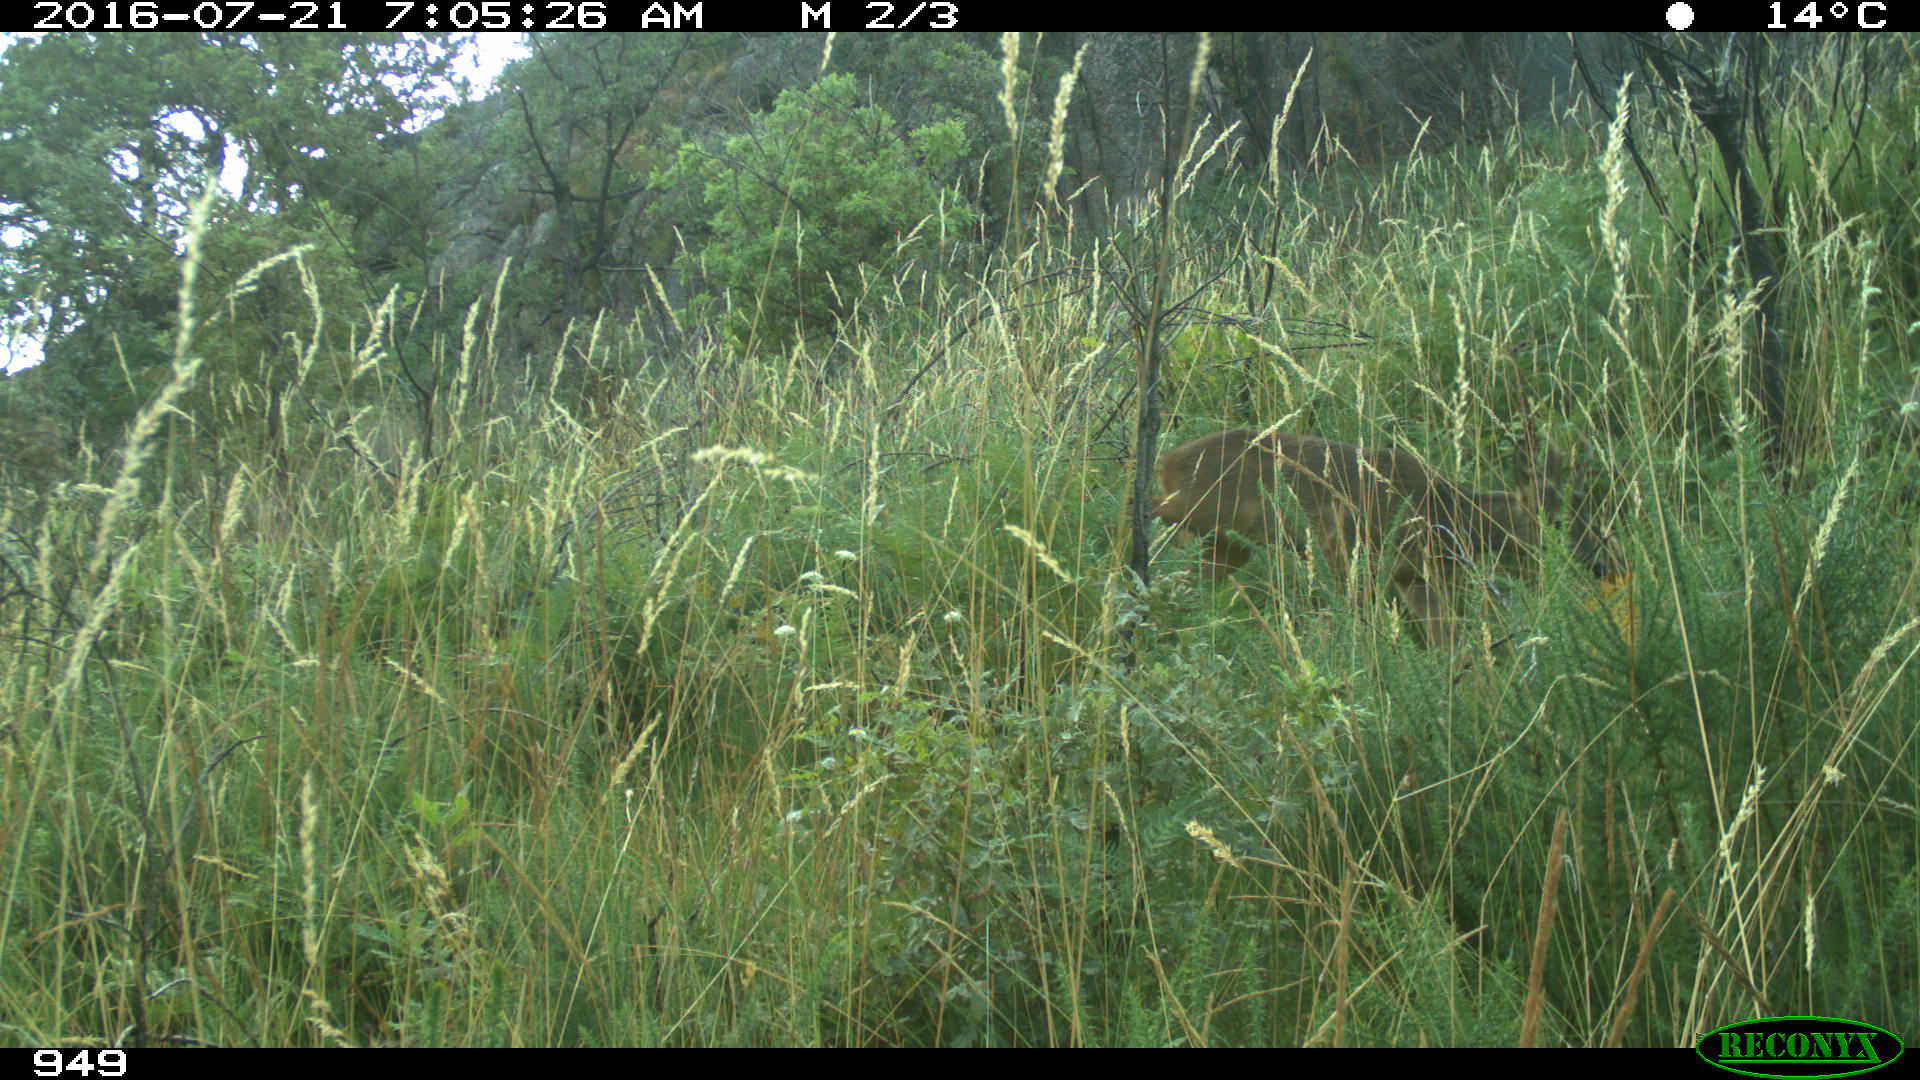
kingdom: Animalia
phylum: Chordata
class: Mammalia
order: Artiodactyla
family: Cervidae
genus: Capreolus
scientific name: Capreolus capreolus
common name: Western roe deer
